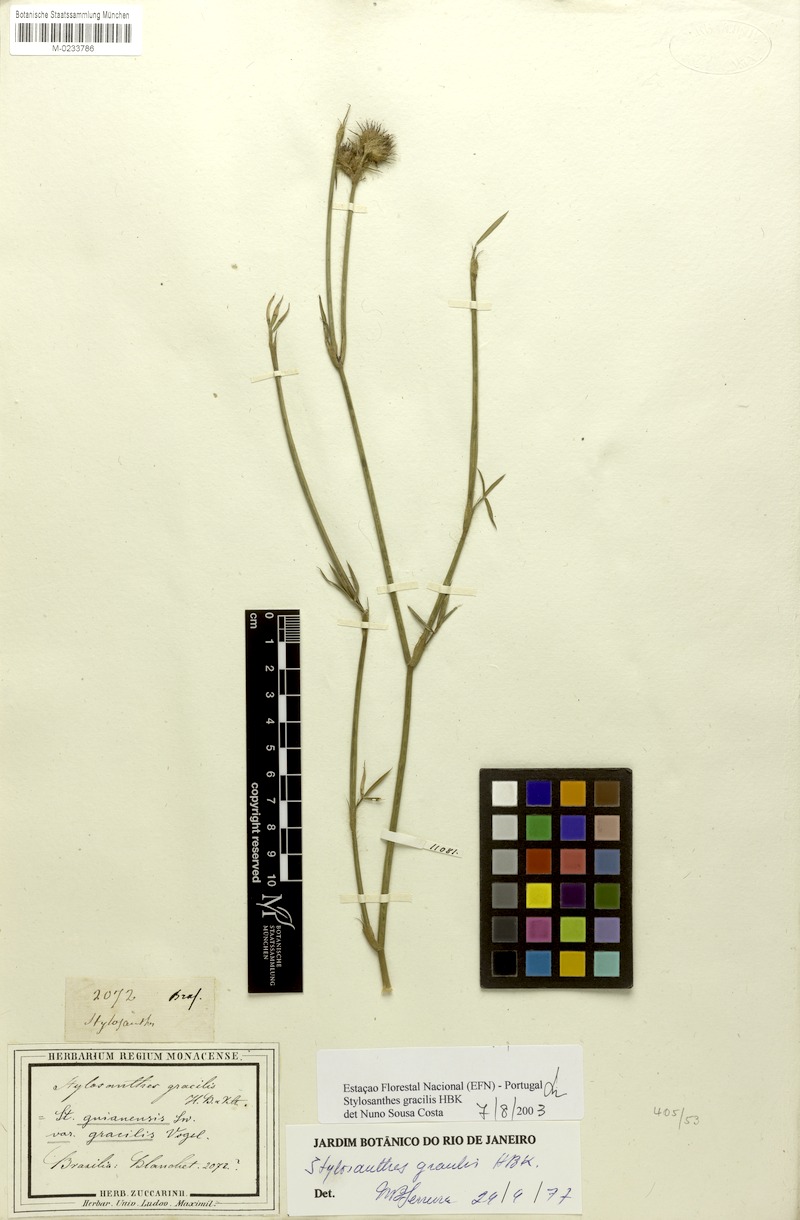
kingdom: Plantae
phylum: Tracheophyta
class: Magnoliopsida
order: Fabales
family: Fabaceae
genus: Stylosanthes
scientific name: Stylosanthes guianensis
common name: Pencil flower
